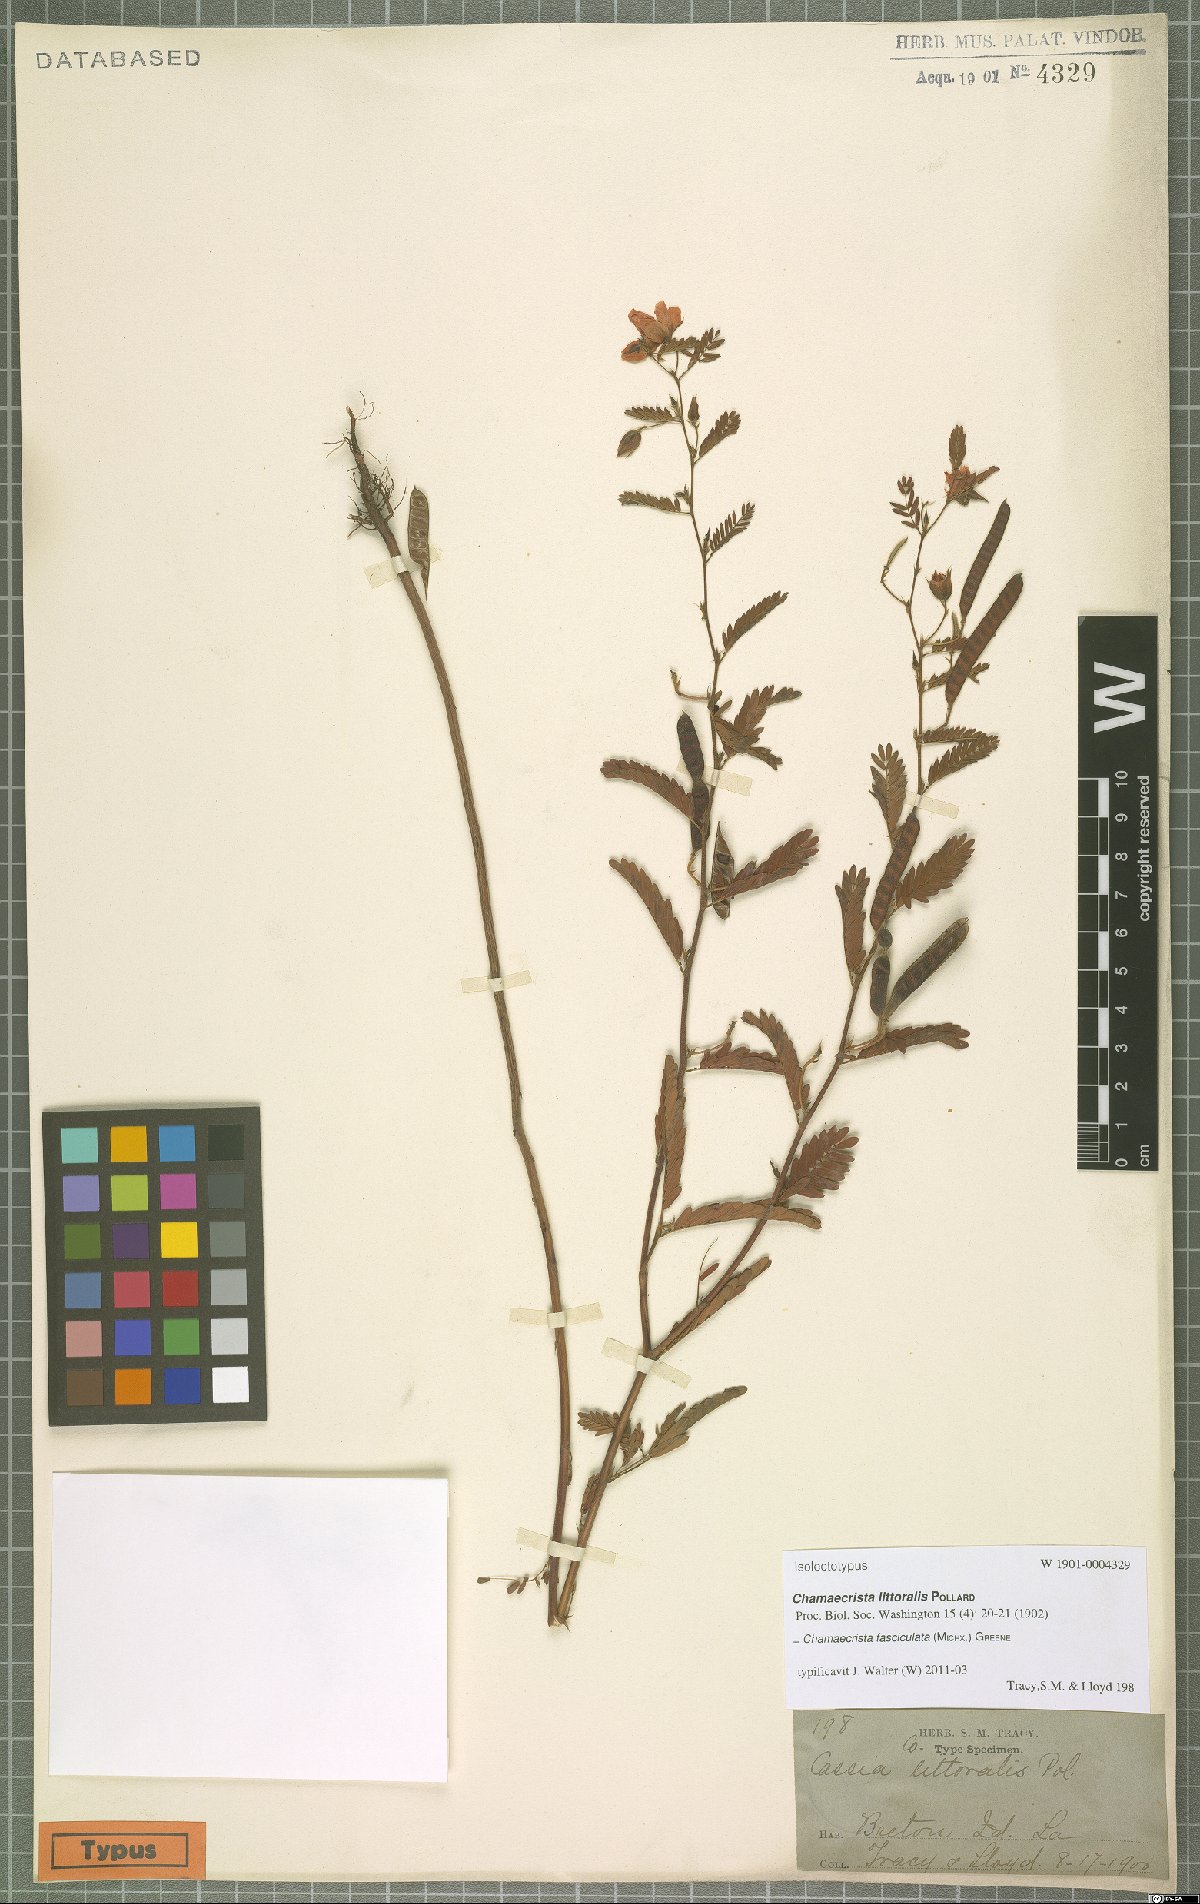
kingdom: Plantae
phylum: Tracheophyta
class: Magnoliopsida
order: Fabales
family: Fabaceae
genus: Chamaecrista
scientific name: Chamaecrista fasciculata
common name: Golden cassia
